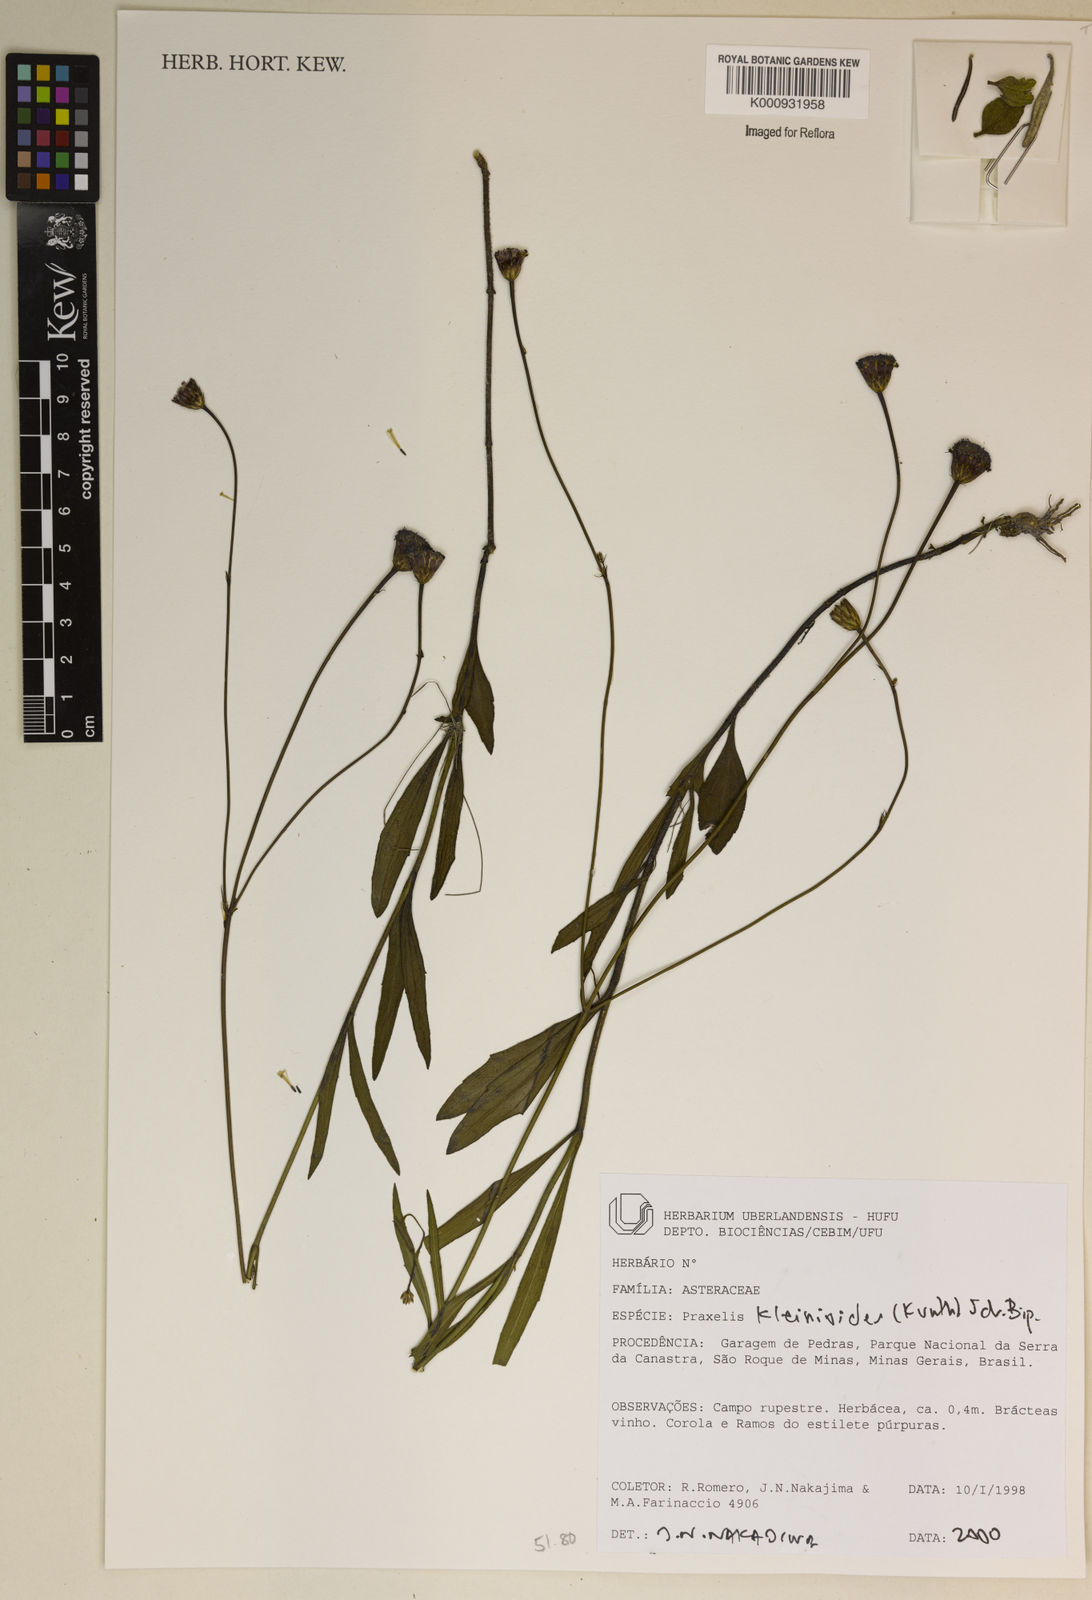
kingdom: Plantae
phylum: Tracheophyta
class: Magnoliopsida
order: Asterales
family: Asteraceae
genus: Praxelis
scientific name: Praxelis kleinioides
